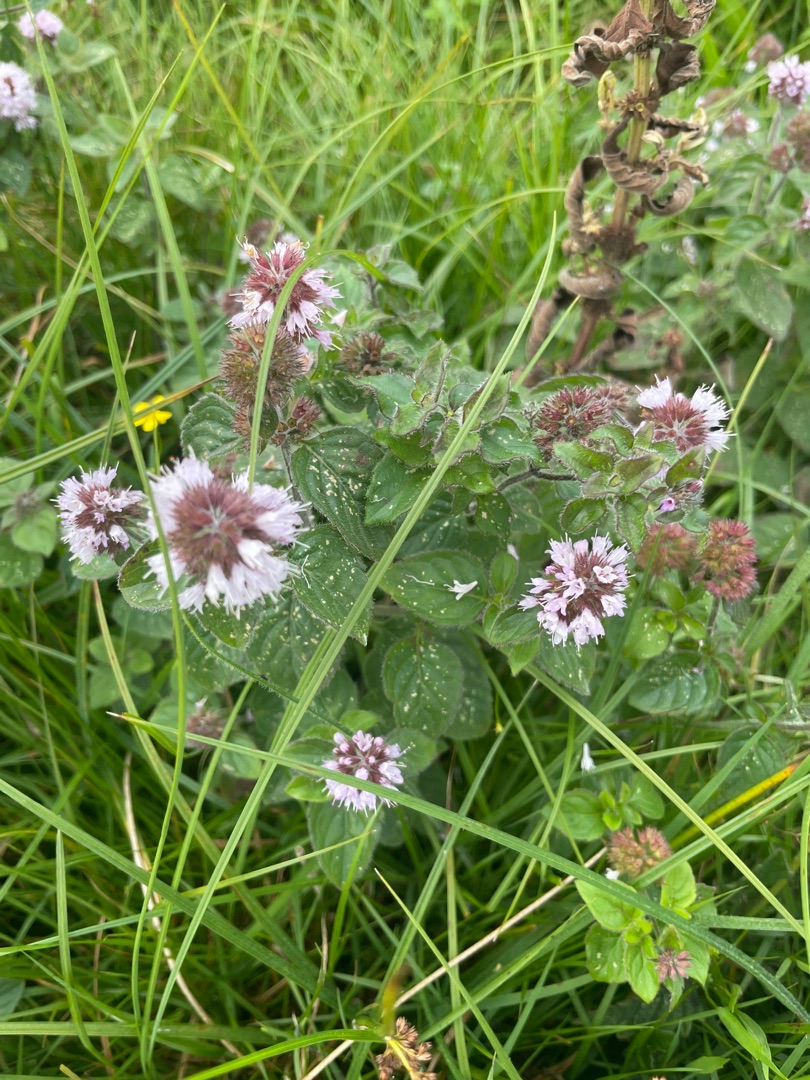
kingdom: Plantae
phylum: Tracheophyta
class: Magnoliopsida
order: Lamiales
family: Lamiaceae
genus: Mentha
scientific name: Mentha aquatica
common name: Vand-mynte
